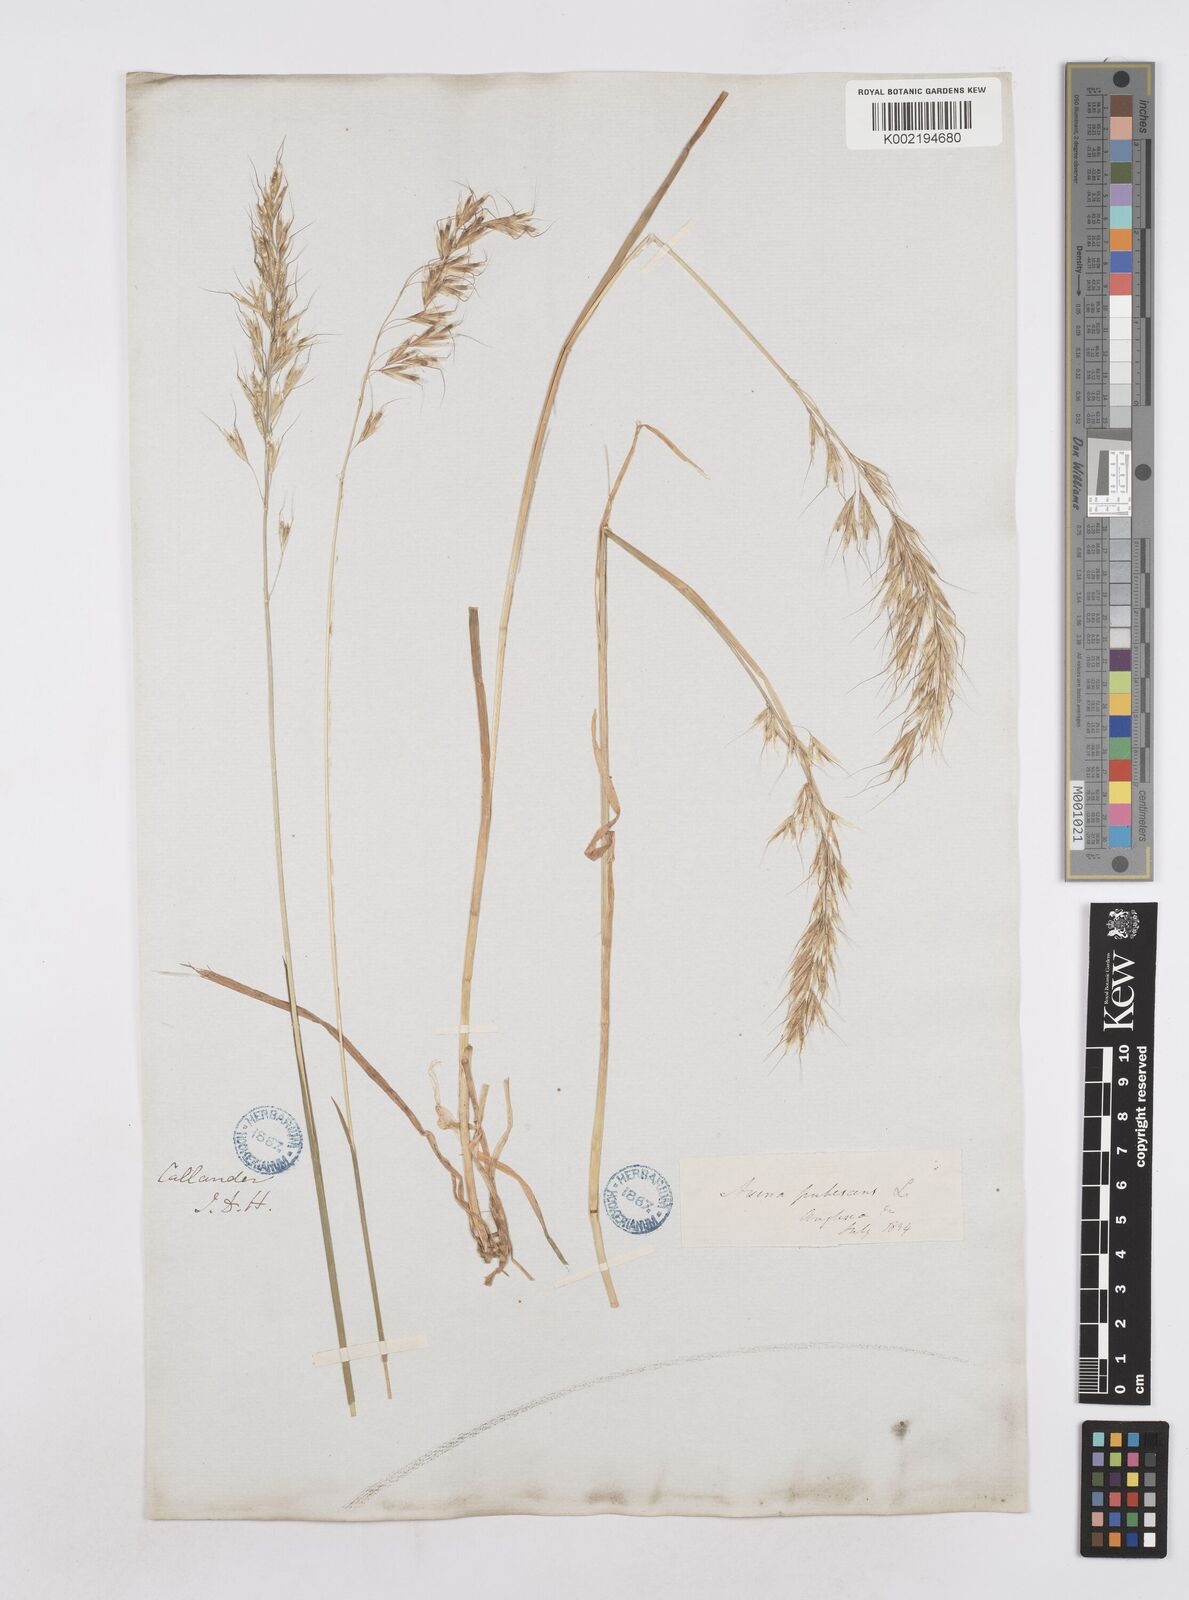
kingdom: Plantae
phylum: Tracheophyta
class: Liliopsida
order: Poales
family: Poaceae
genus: Avenula
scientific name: Avenula pubescens
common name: Downy alpine oatgrass
